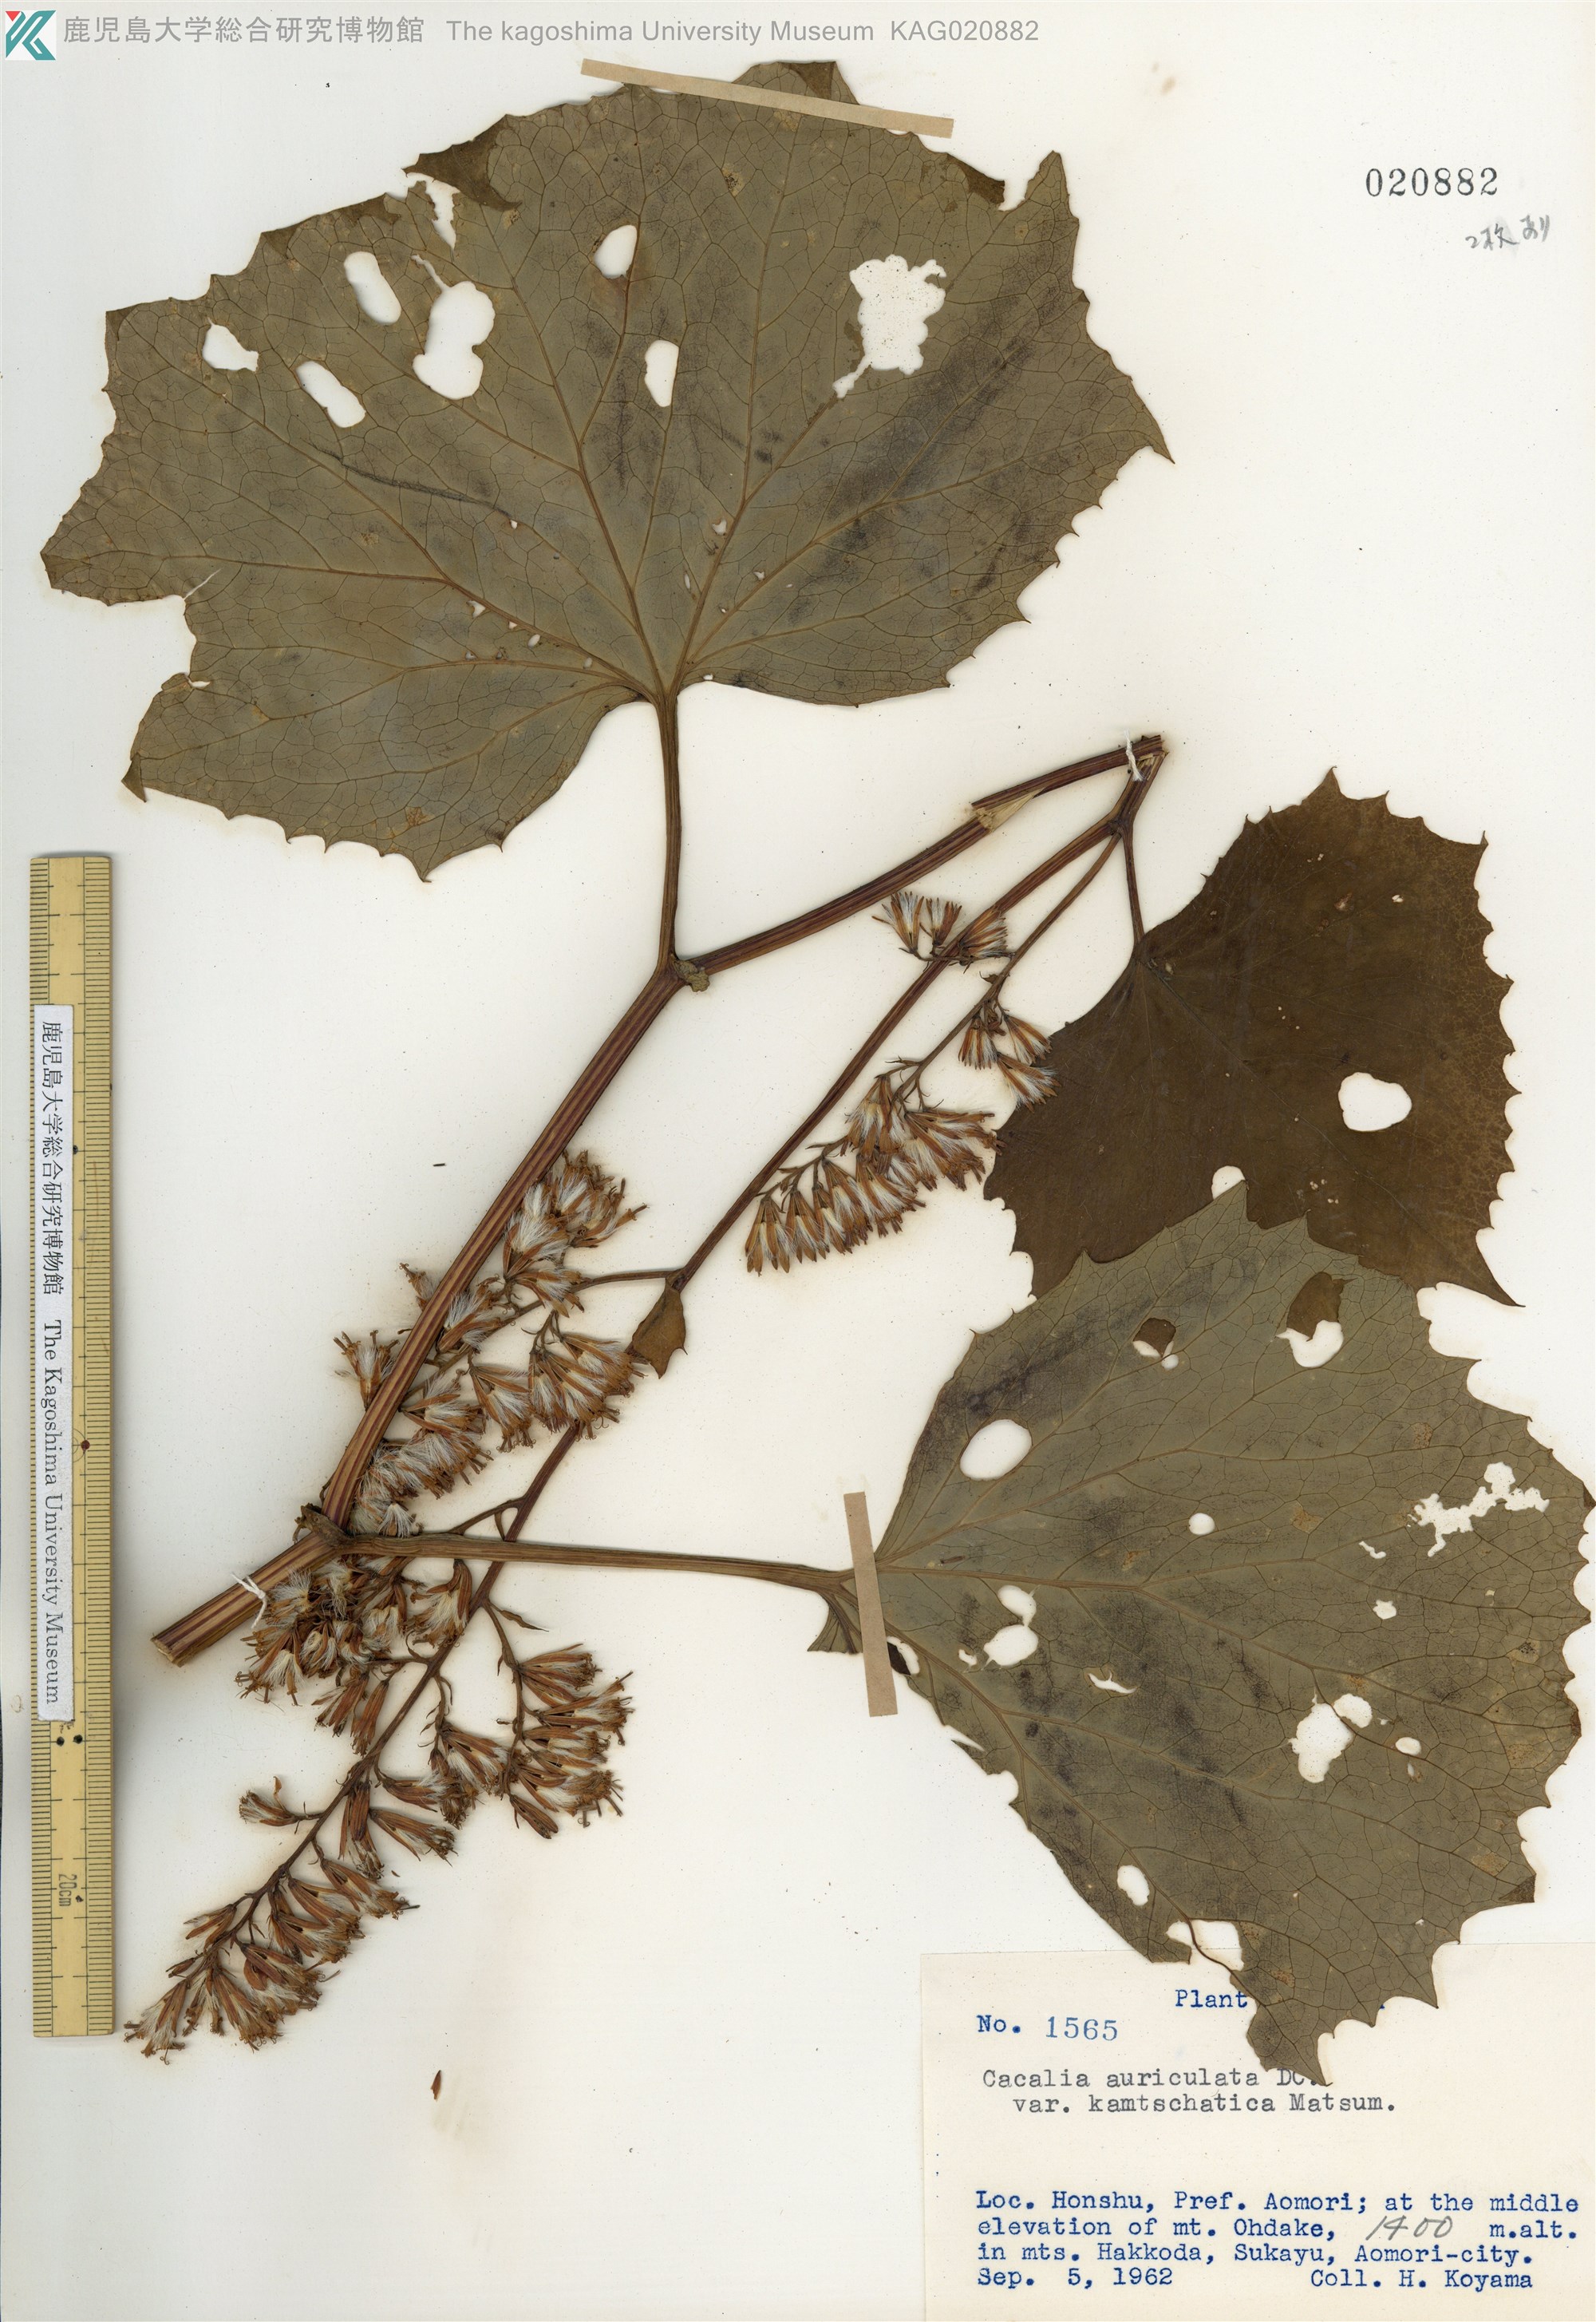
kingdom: Plantae
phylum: Tracheophyta
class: Magnoliopsida
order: Asterales
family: Asteraceae
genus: Parasenecio
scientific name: Parasenecio kamtschaticus
